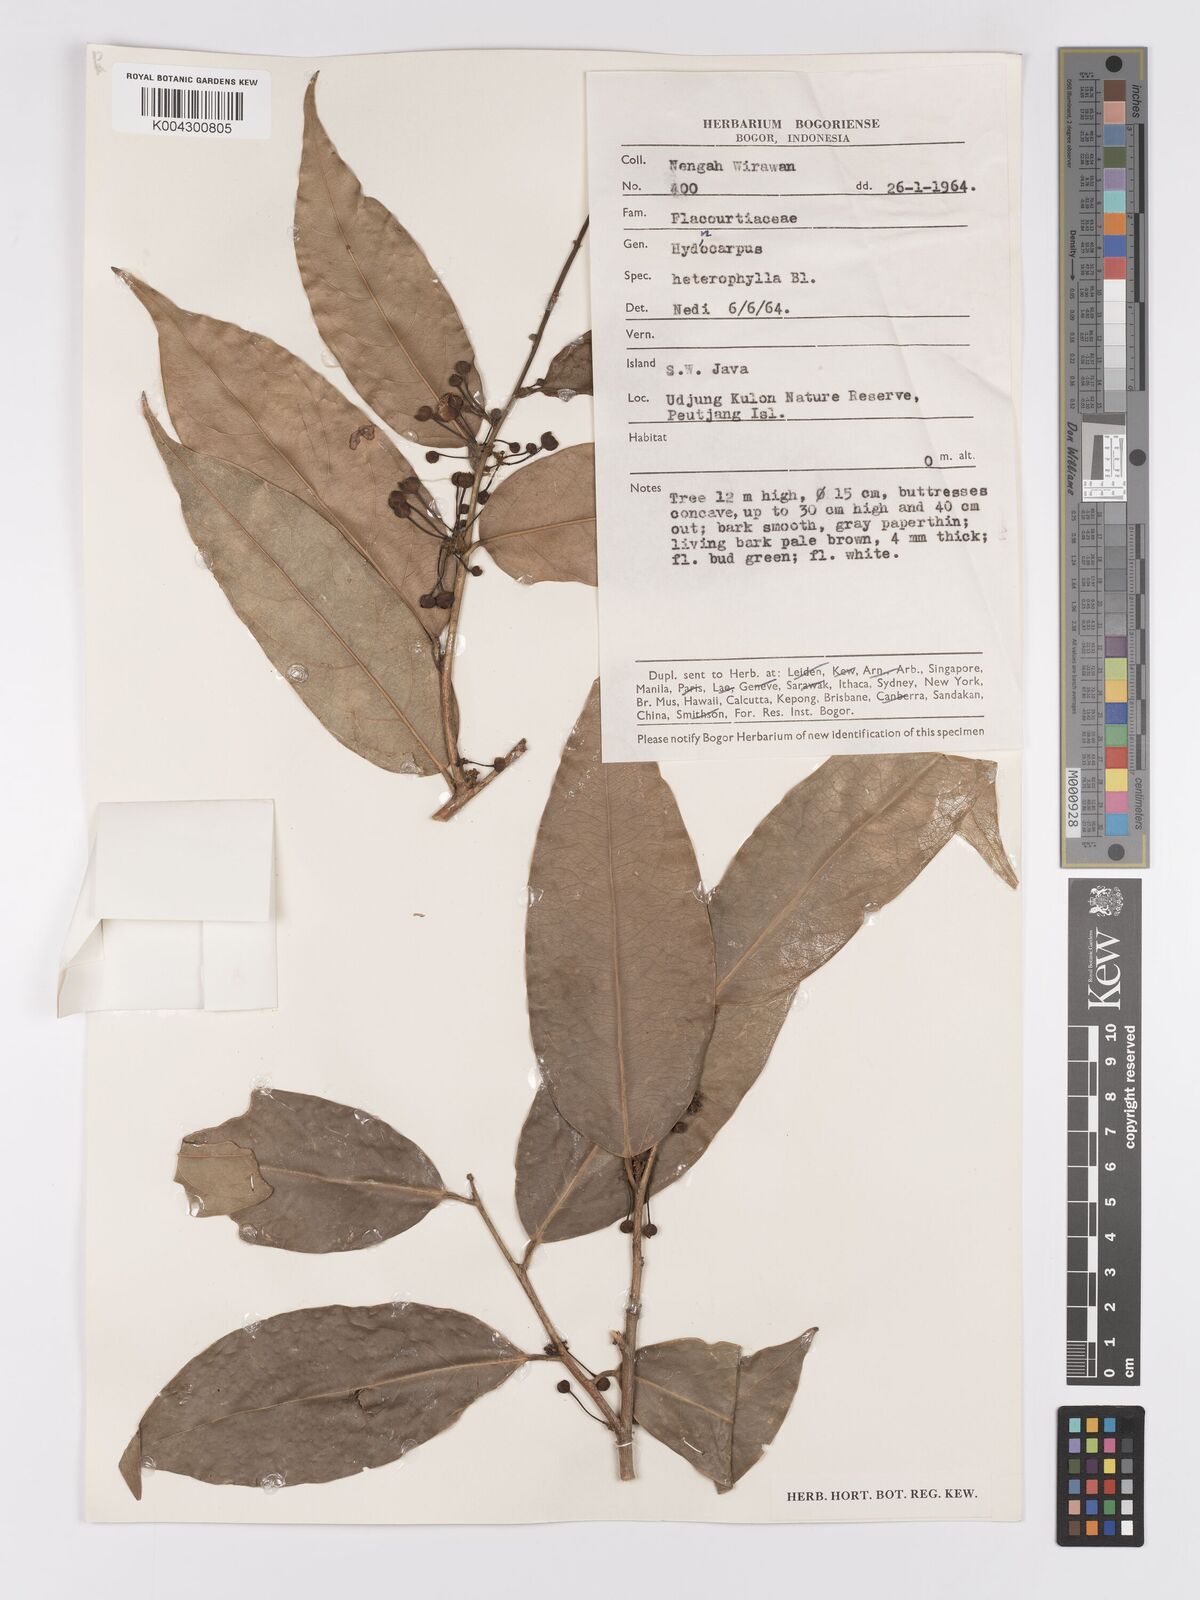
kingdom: Plantae
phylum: Tracheophyta
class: Magnoliopsida
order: Malpighiales
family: Achariaceae
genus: Hydnocarpus
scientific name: Hydnocarpus heterophyllus
